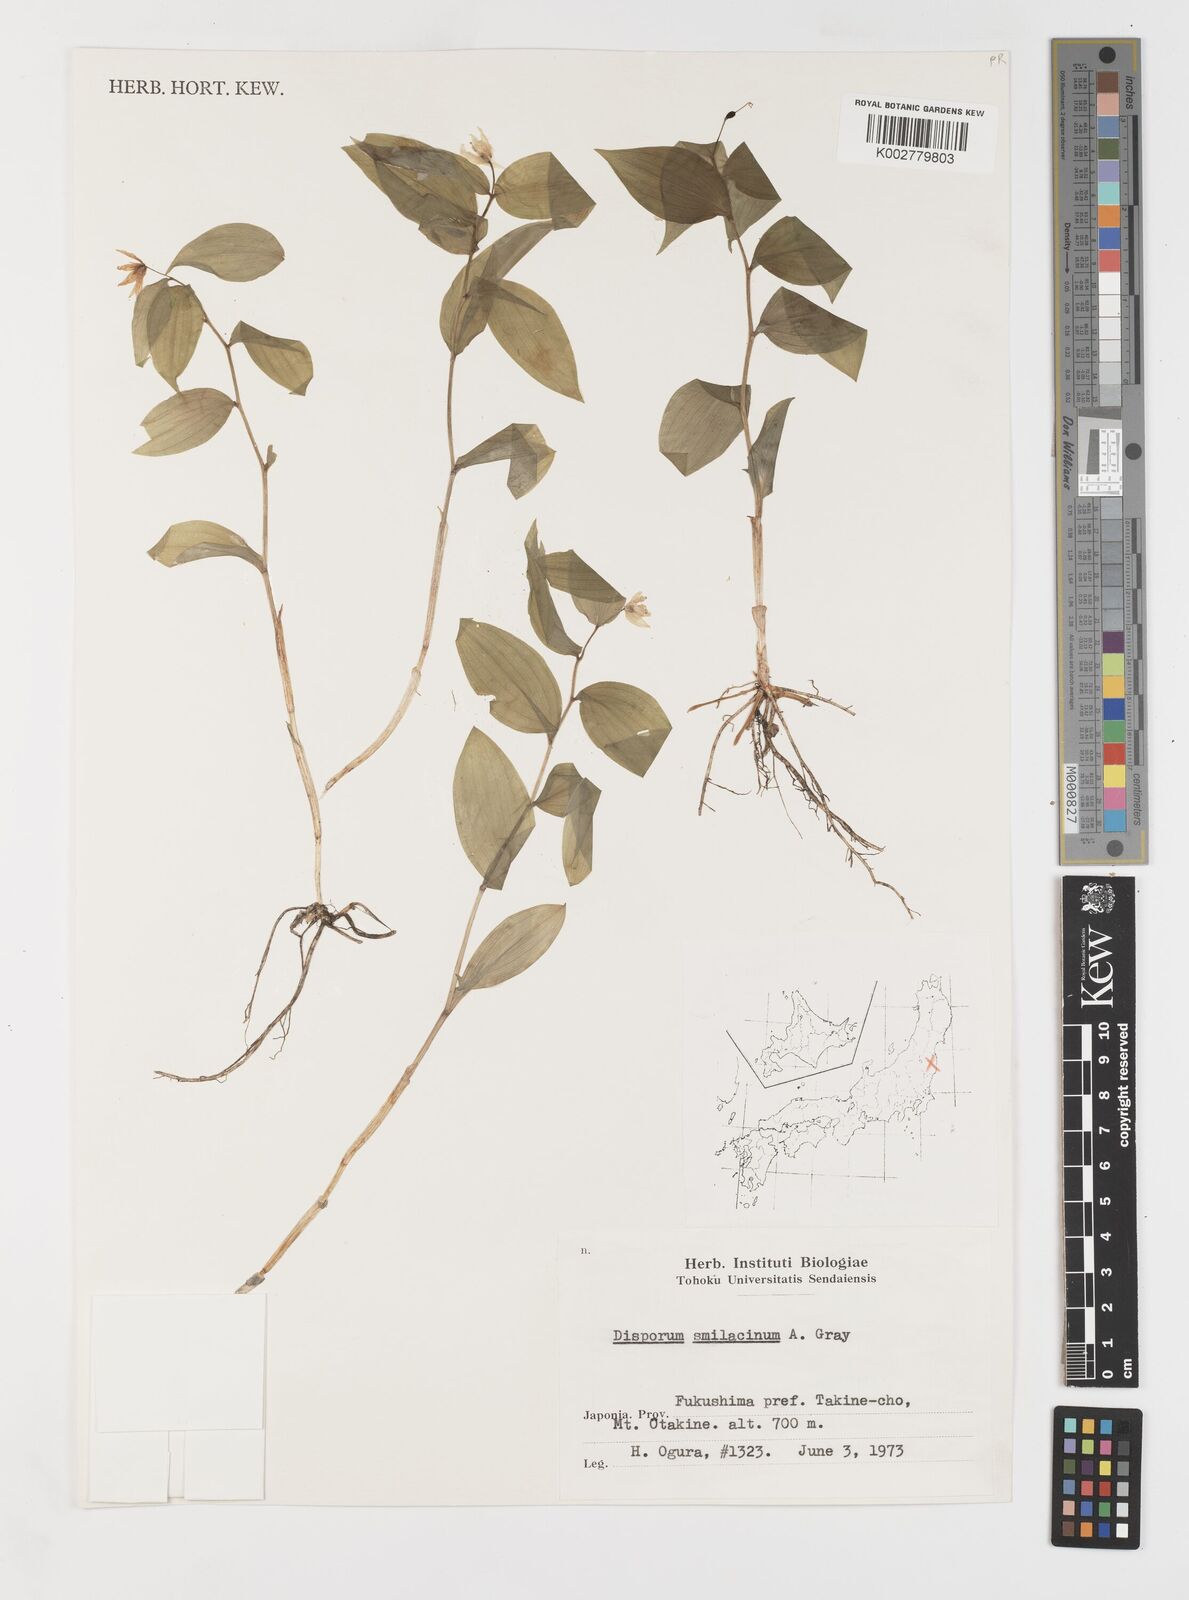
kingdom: Plantae
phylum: Tracheophyta
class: Liliopsida
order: Liliales
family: Colchicaceae
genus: Disporum
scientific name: Disporum smilacinum
